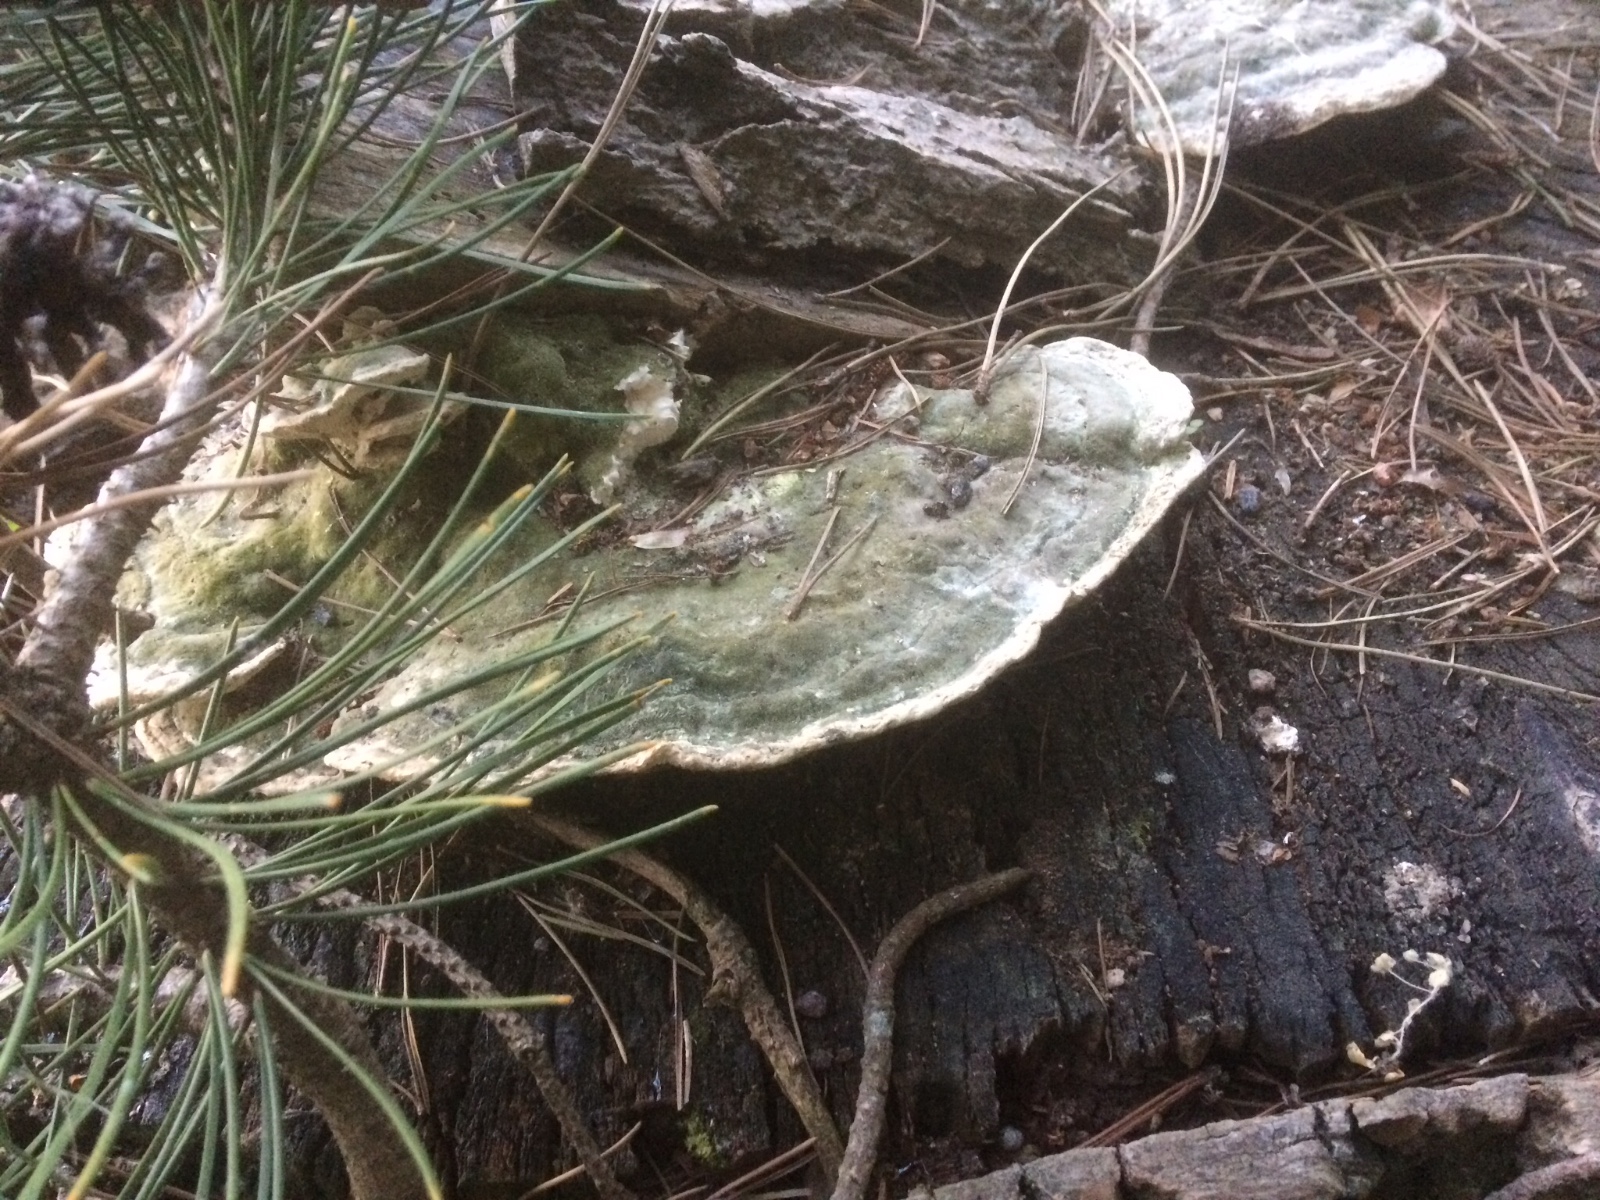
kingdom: Fungi
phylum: Basidiomycota
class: Agaricomycetes
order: Polyporales
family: Polyporaceae
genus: Trametes
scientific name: Trametes gibbosa
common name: puklet læderporesvamp
